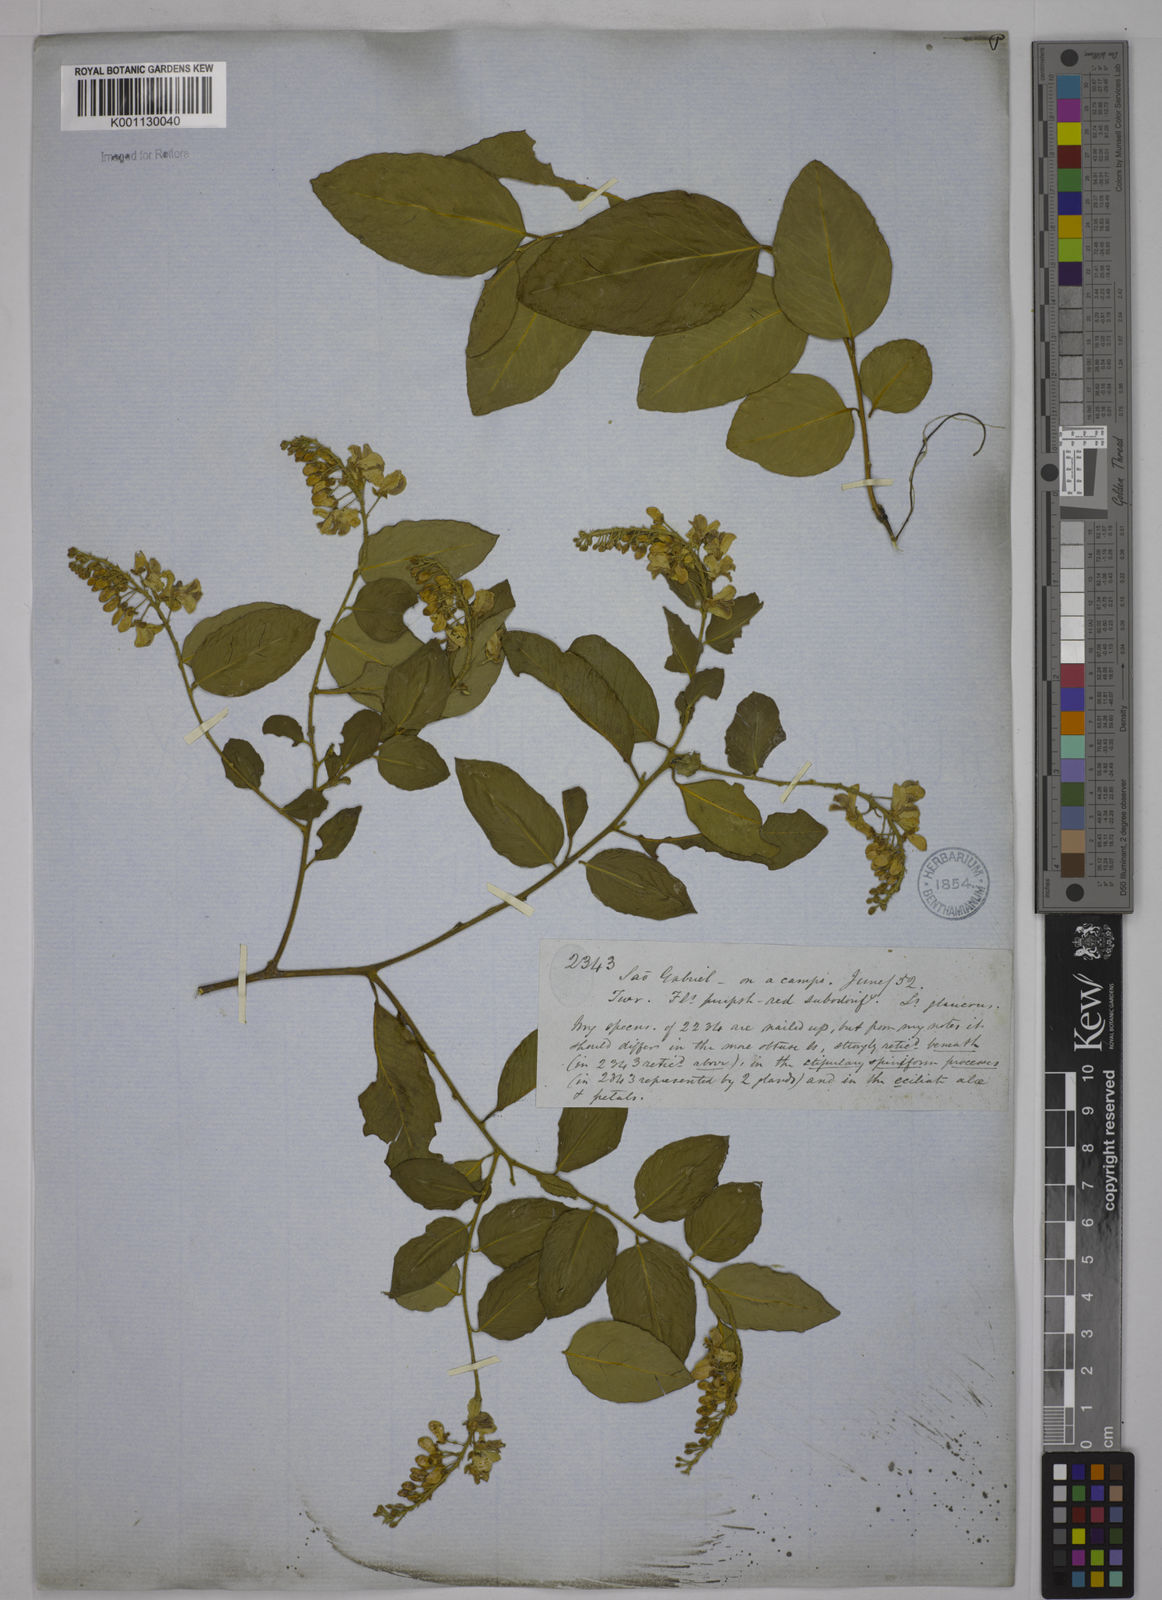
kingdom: Plantae
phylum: Tracheophyta
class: Magnoliopsida
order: Fabales
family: Polygalaceae
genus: Securidaca
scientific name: Securidaca
